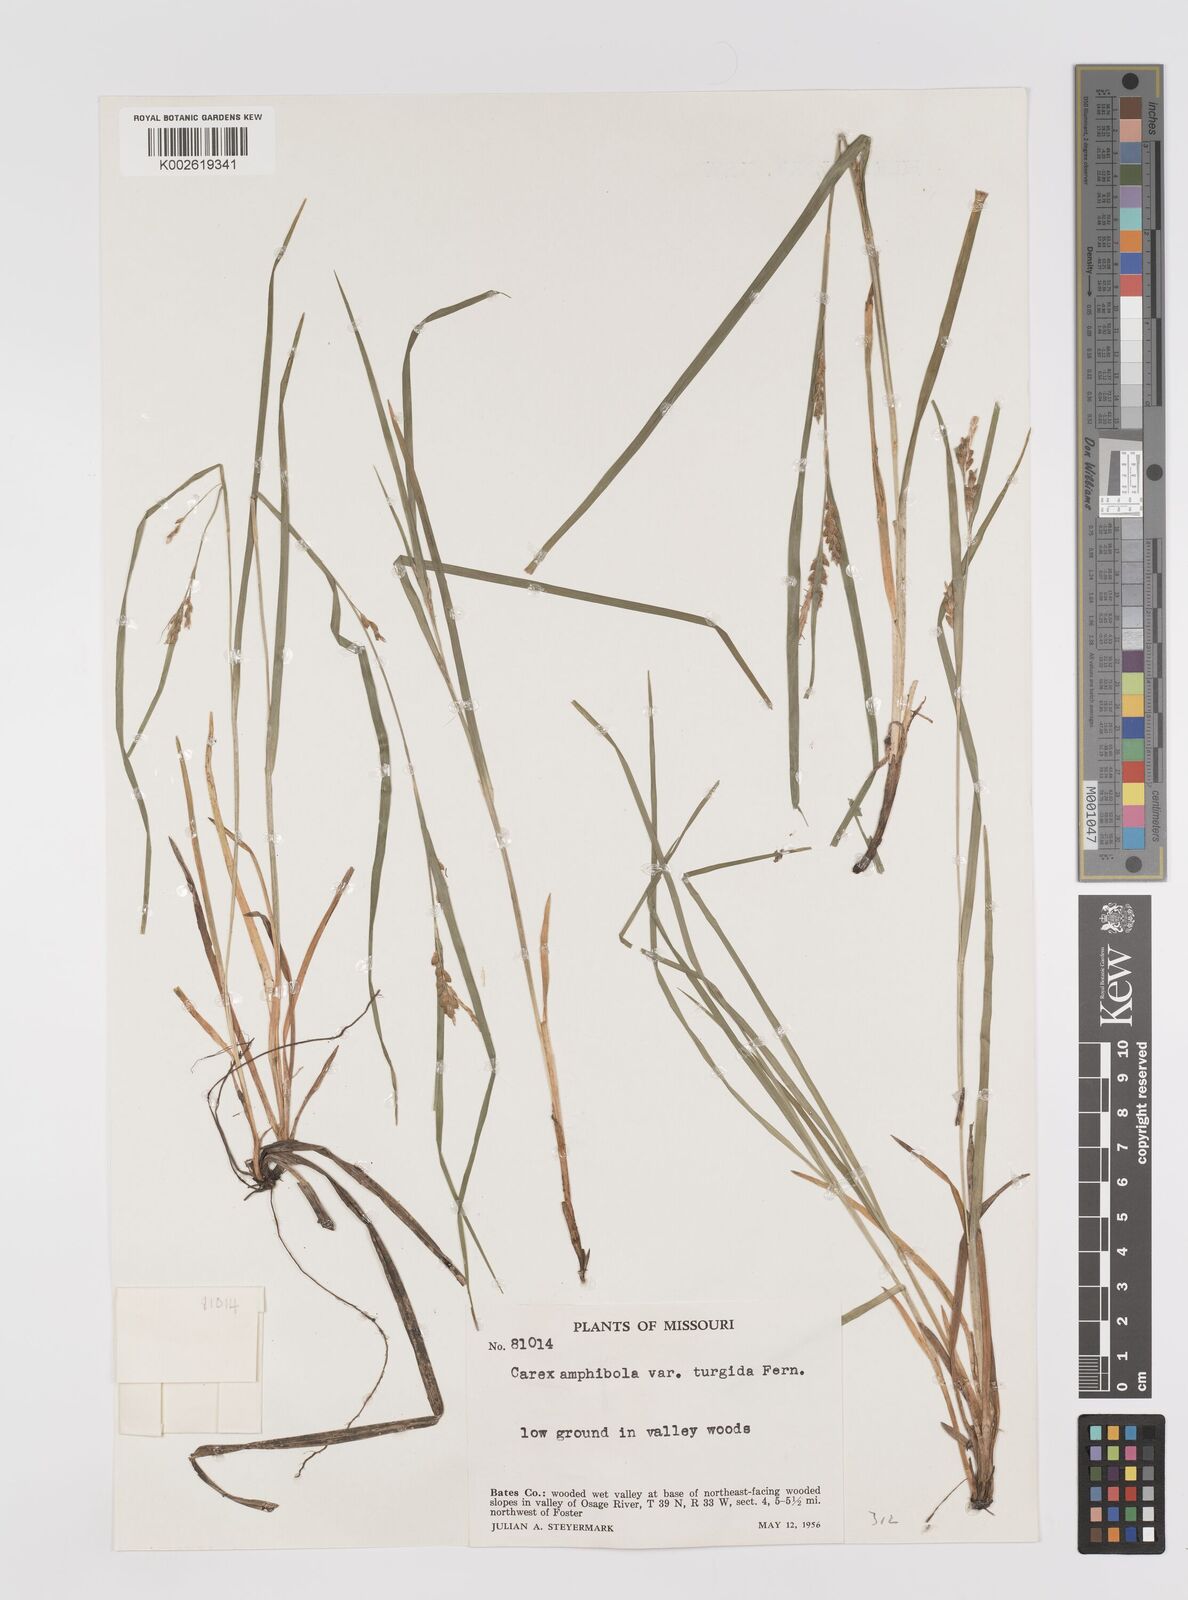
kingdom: Plantae
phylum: Tracheophyta
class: Liliopsida
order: Poales
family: Cyperaceae
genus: Carex
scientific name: Carex amphibola
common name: Amphibious sedge
